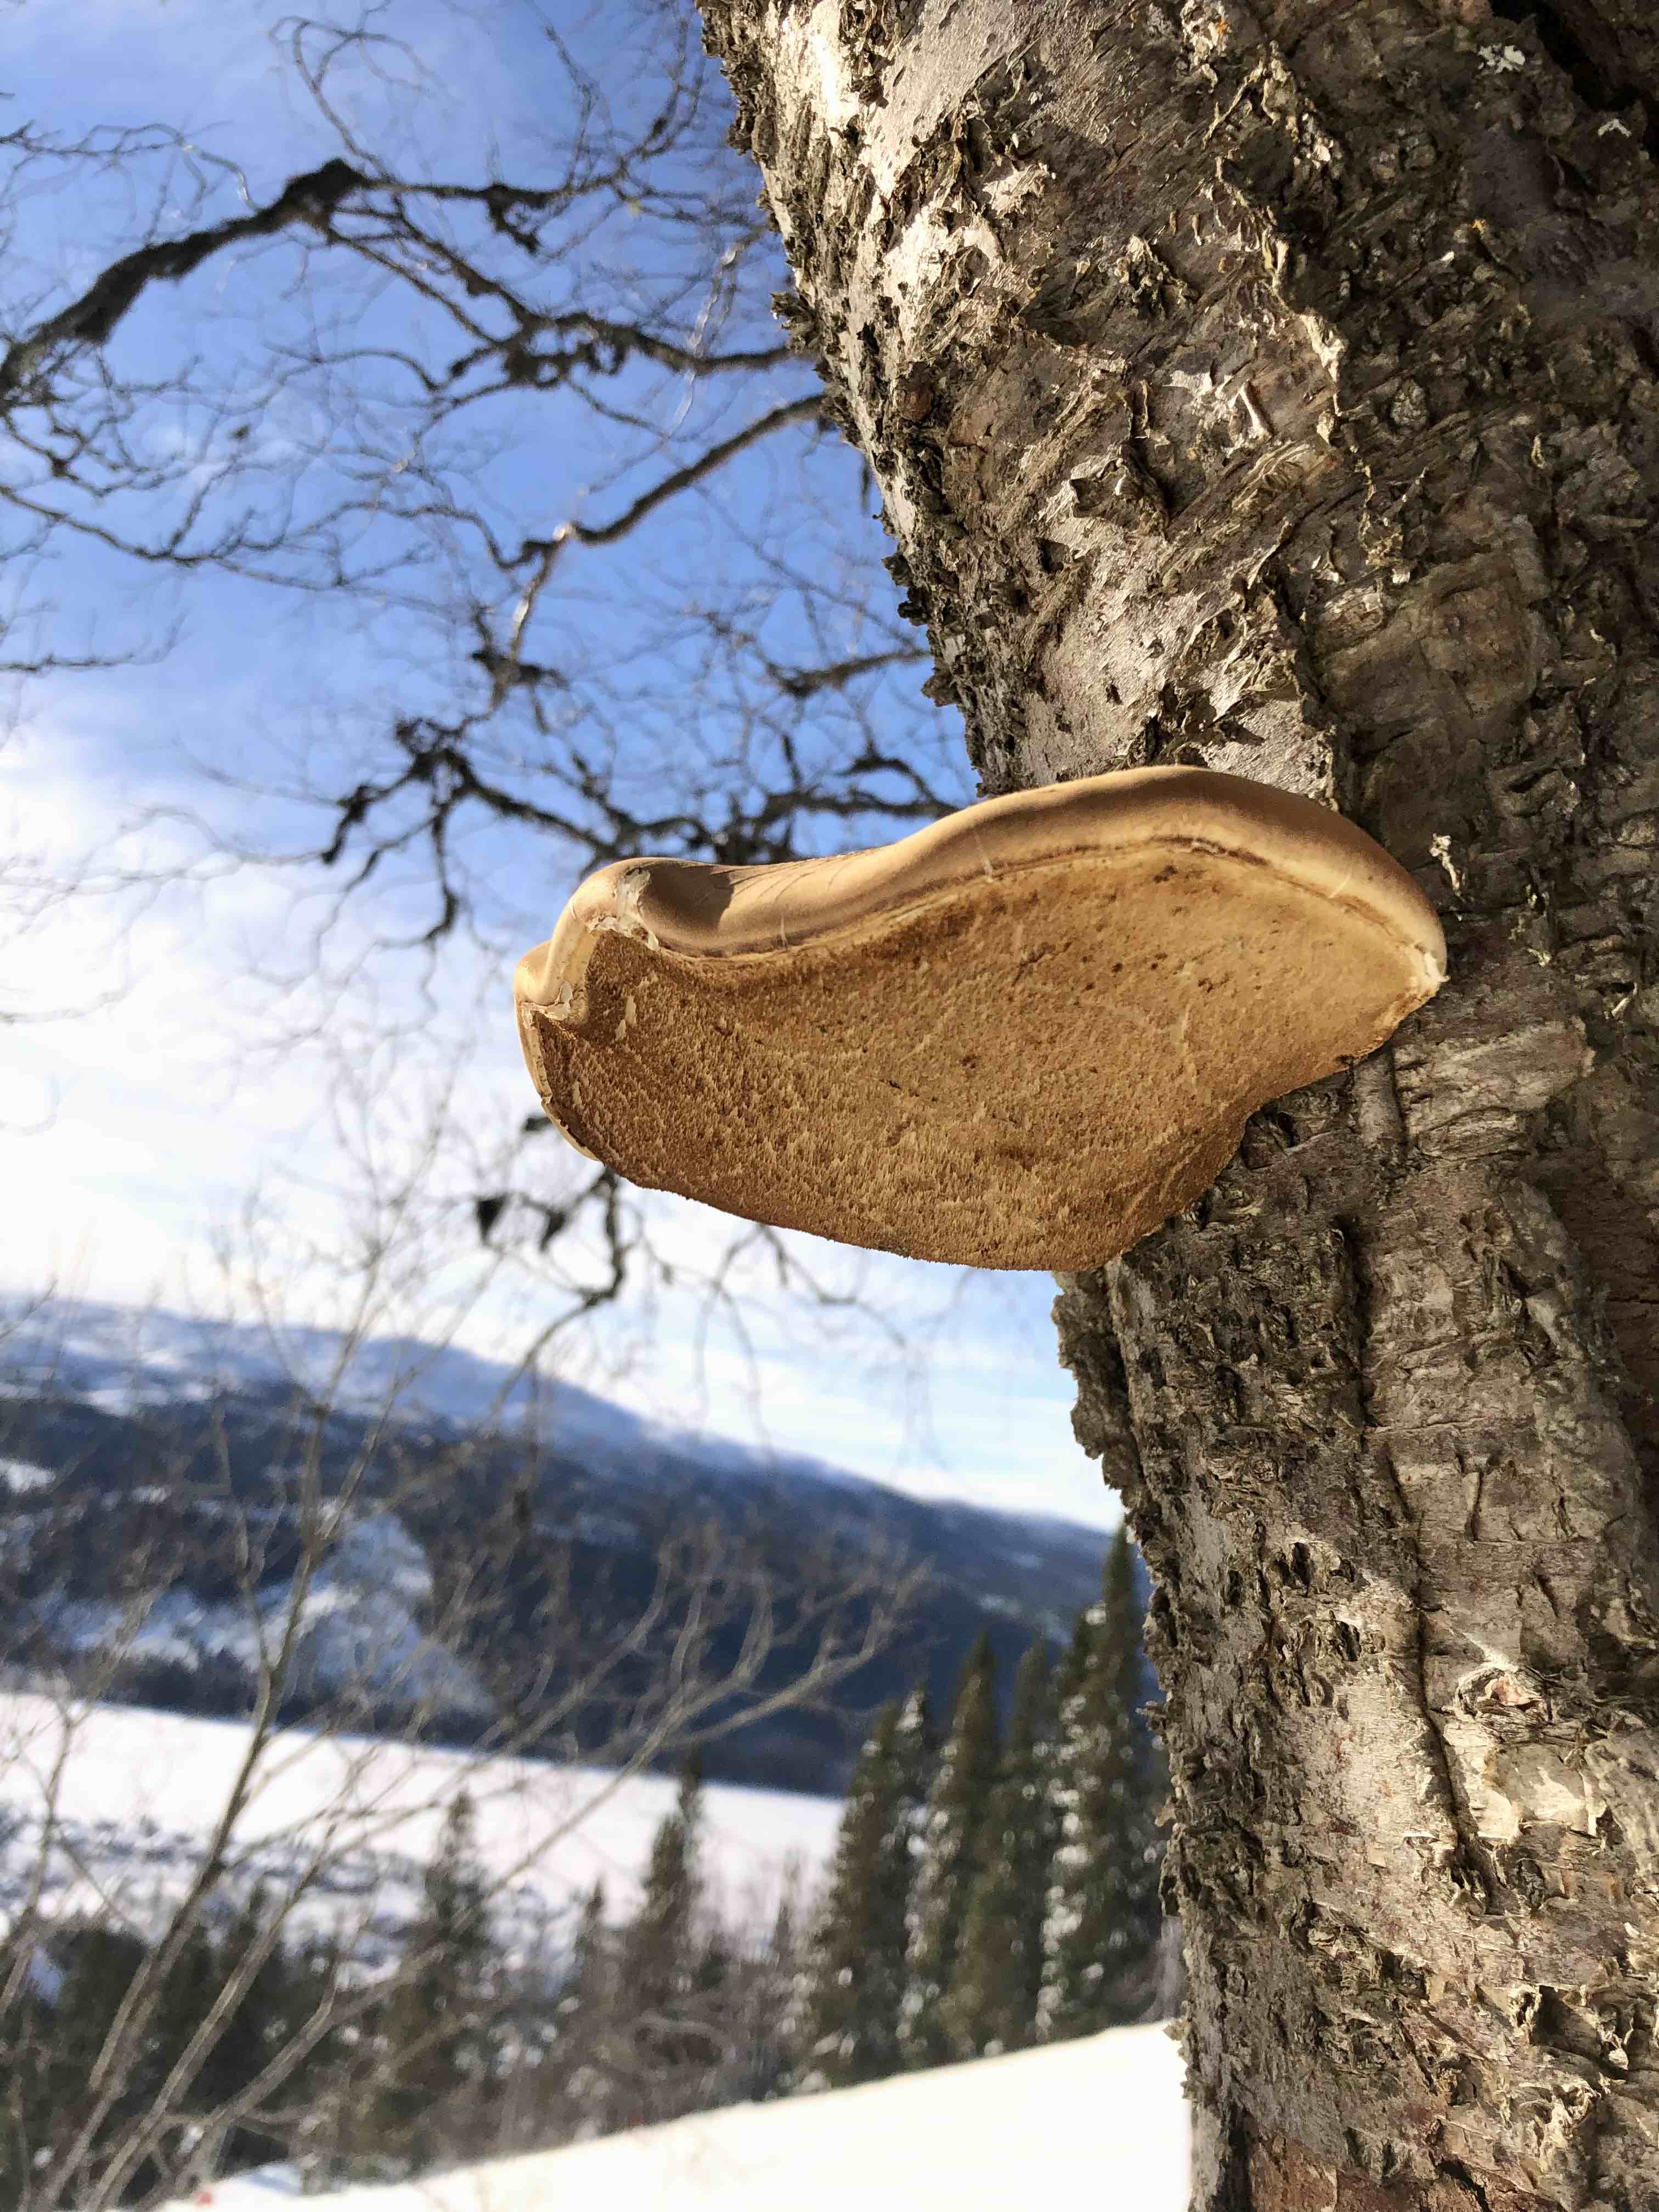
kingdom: Fungi
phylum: Basidiomycota
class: Agaricomycetes
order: Polyporales
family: Fomitopsidaceae
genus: Fomitopsis
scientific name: Fomitopsis betulina
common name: birkeporesvamp
